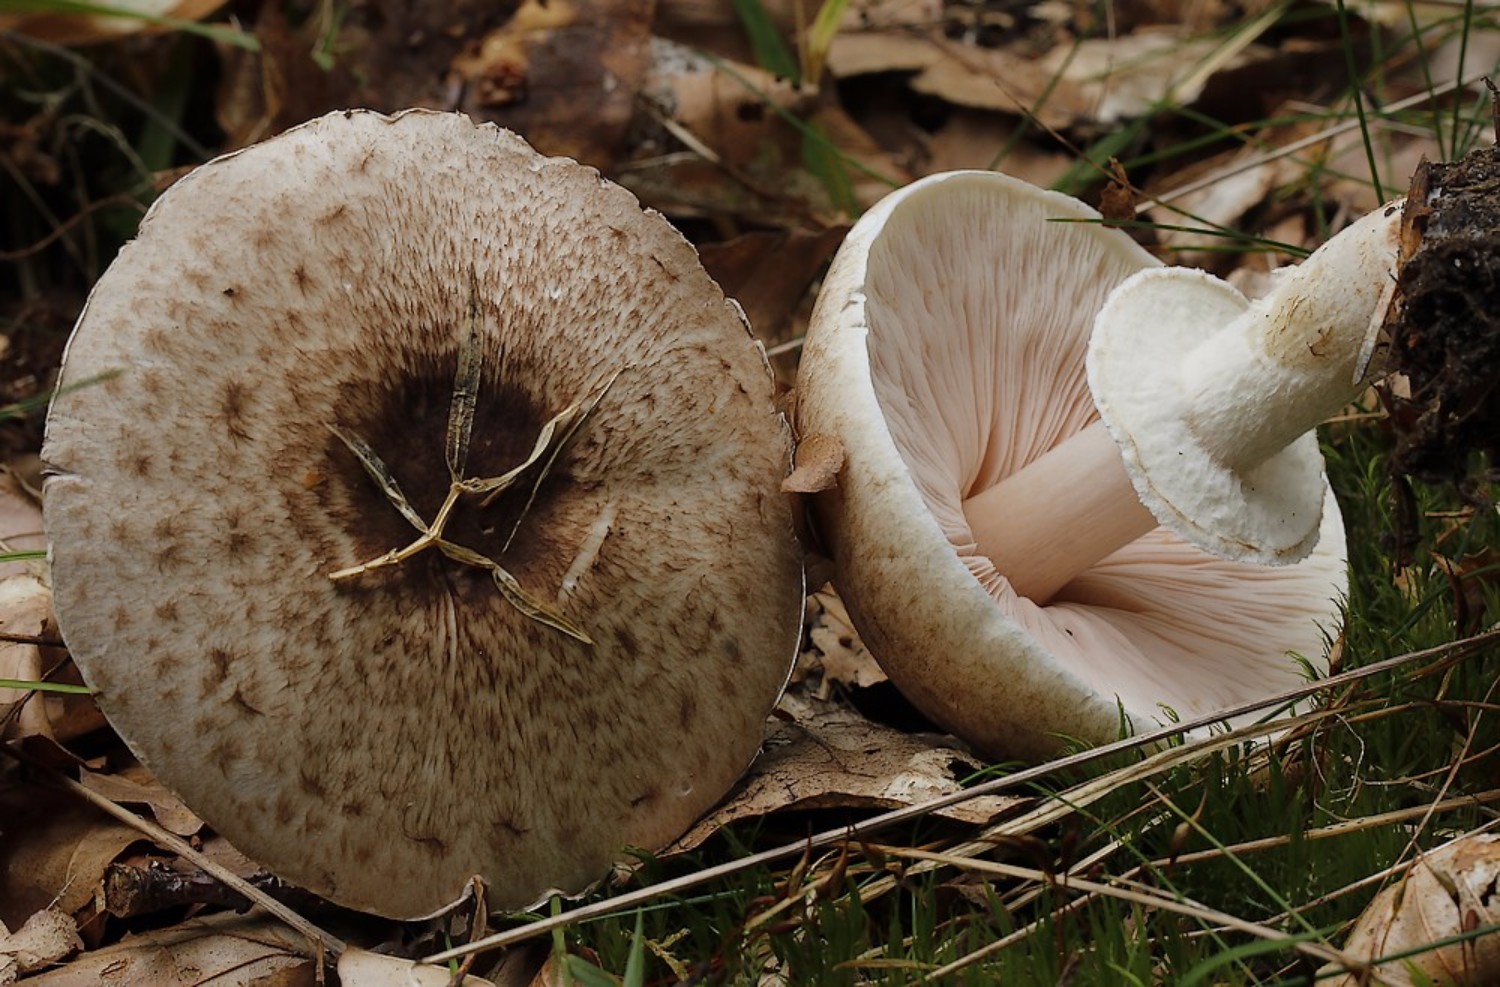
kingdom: Fungi
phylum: Basidiomycota
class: Agaricomycetes
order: Agaricales
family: Agaricaceae
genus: Agaricus
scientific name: Agaricus impudicus
